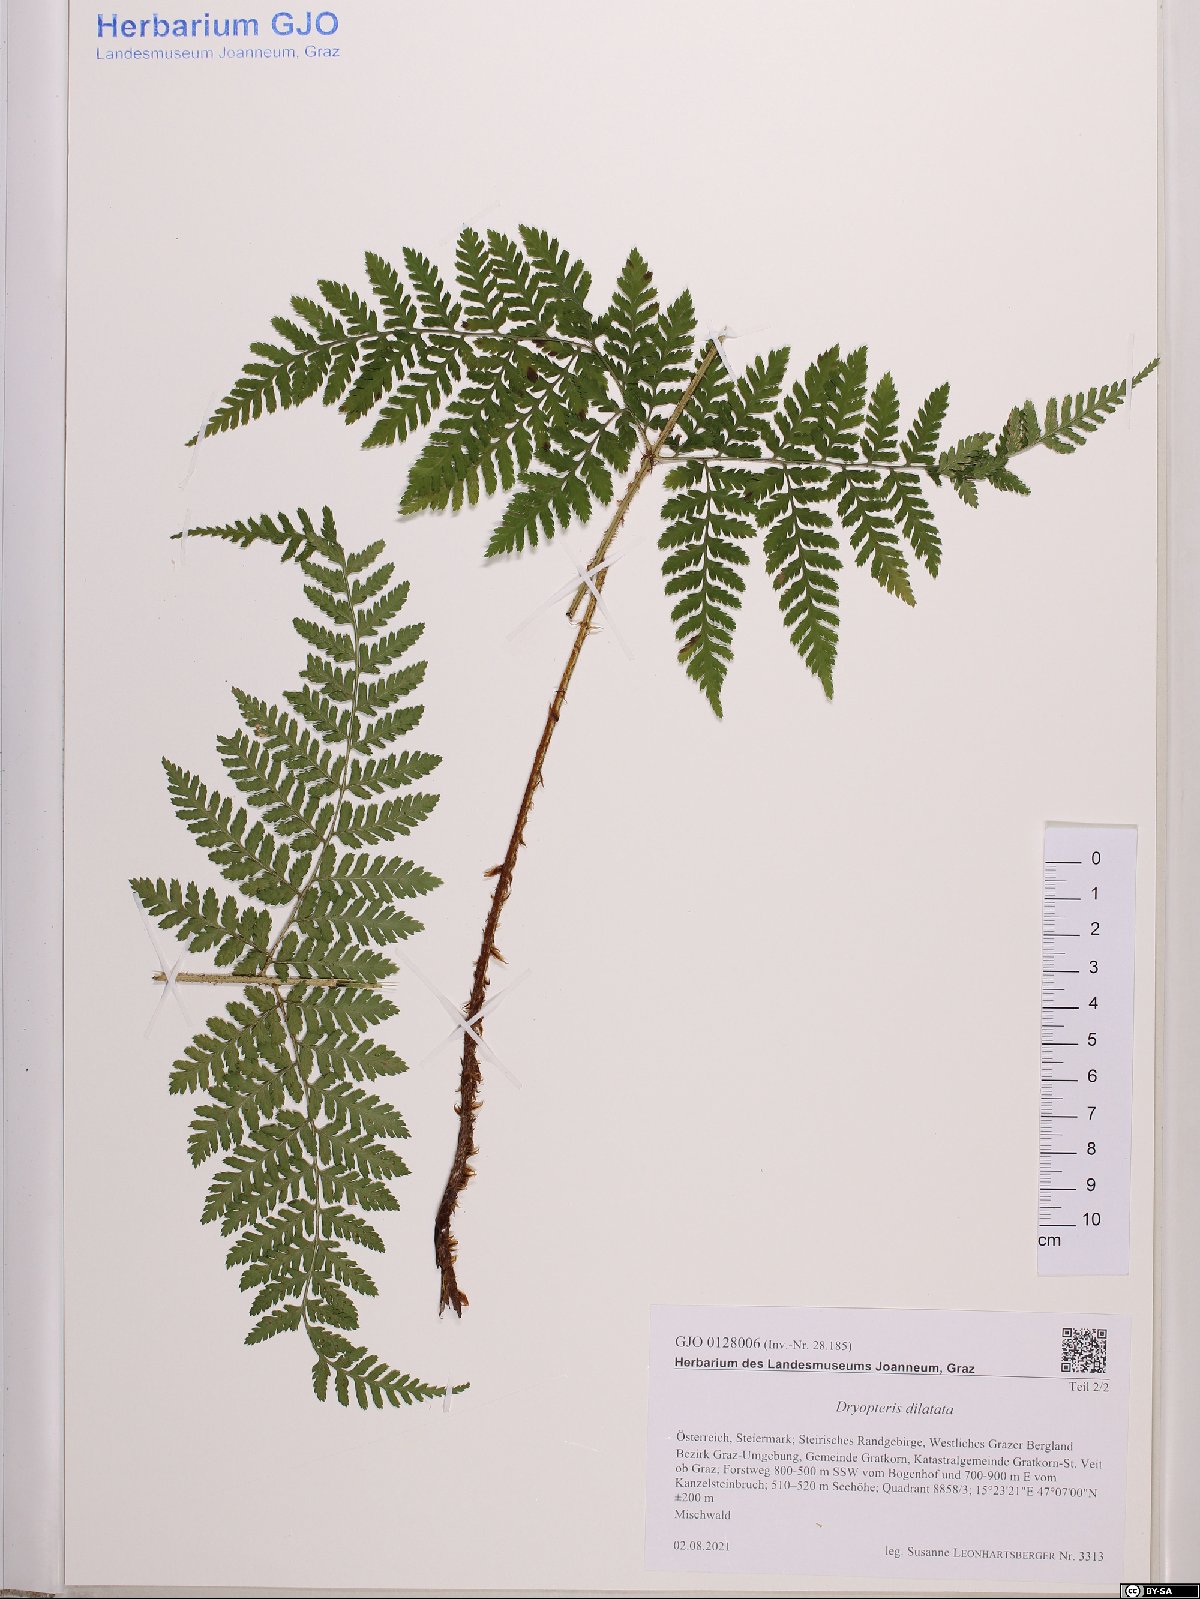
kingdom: Plantae
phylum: Tracheophyta
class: Polypodiopsida
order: Polypodiales
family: Dryopteridaceae
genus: Dryopteris
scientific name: Dryopteris dilatata
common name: Broad buckler-fern
